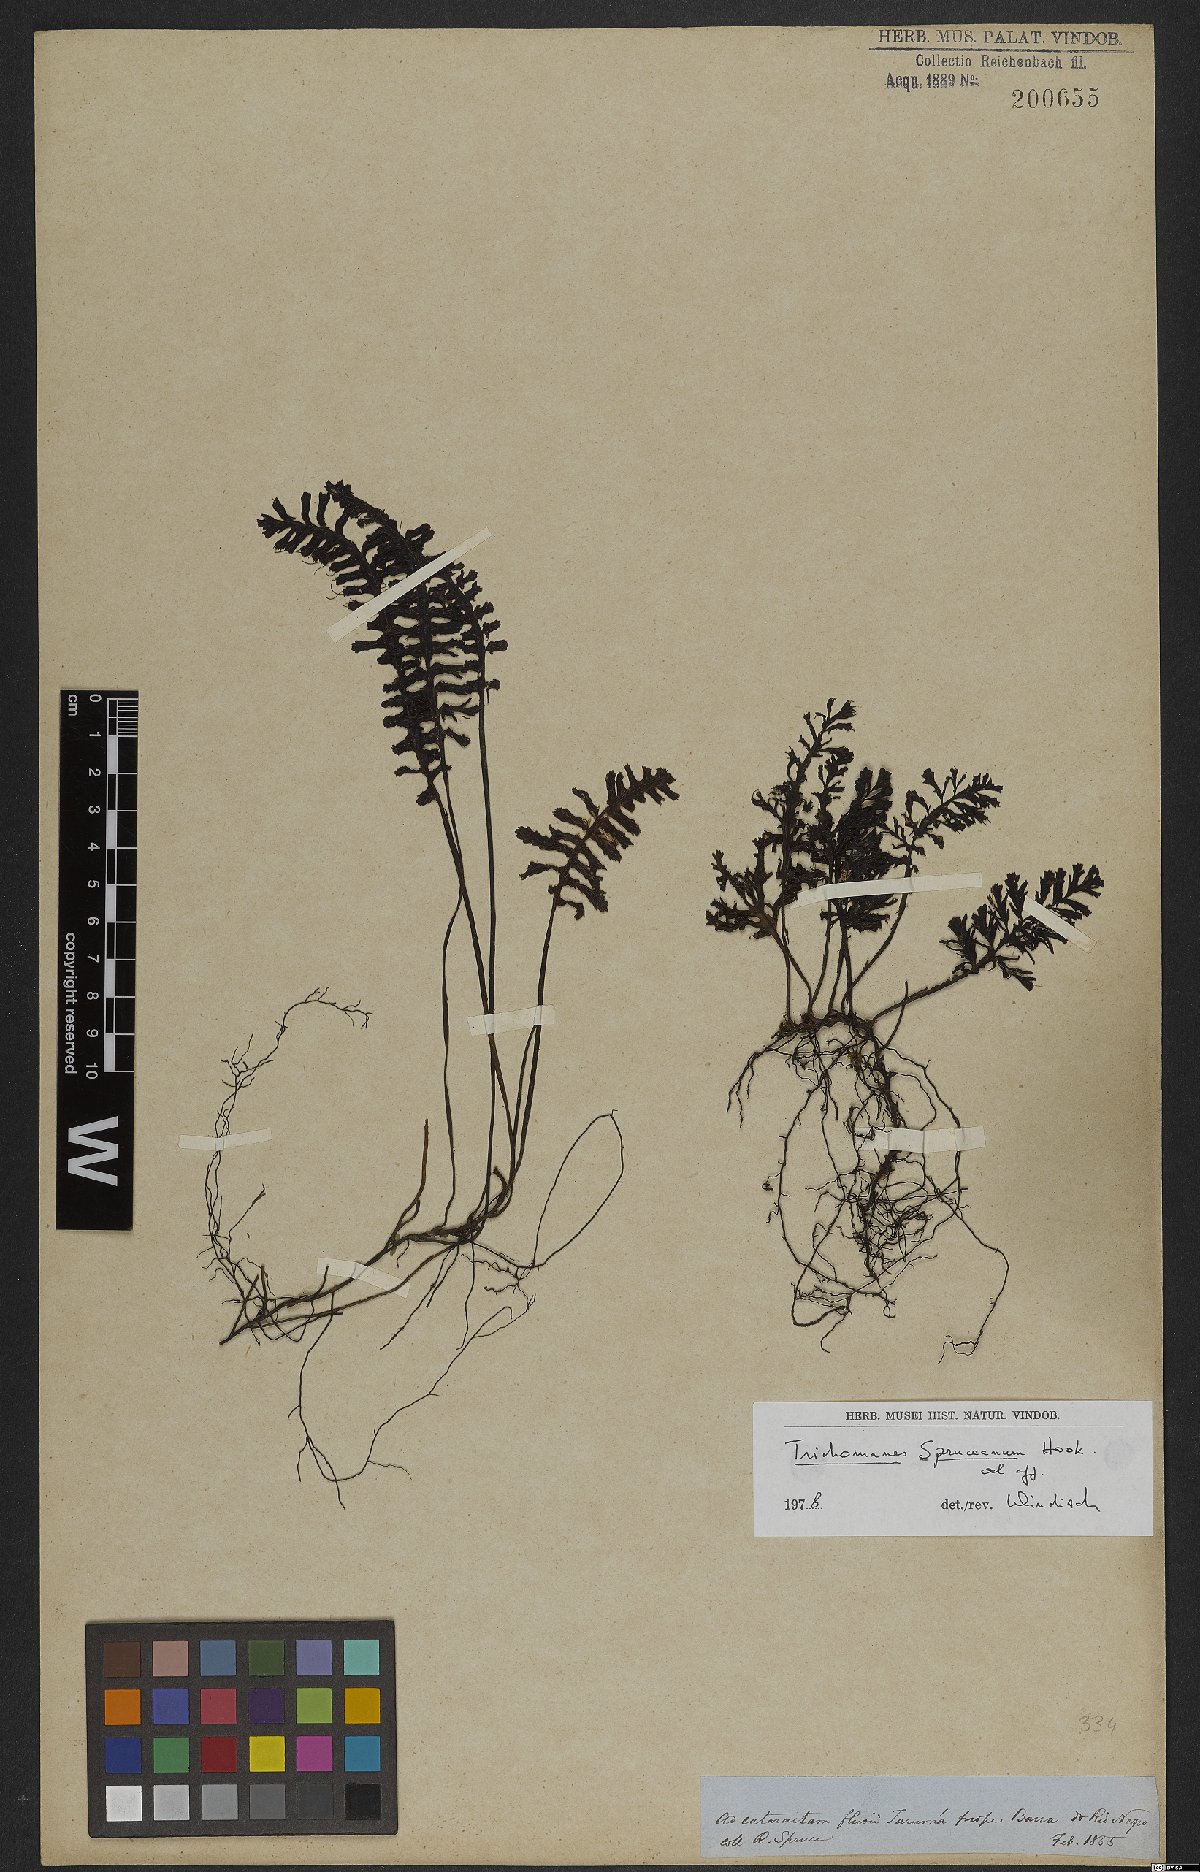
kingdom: Plantae
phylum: Tracheophyta
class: Polypodiopsida
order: Hymenophyllales
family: Hymenophyllaceae
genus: Trichomanes
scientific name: Trichomanes spruceanum
